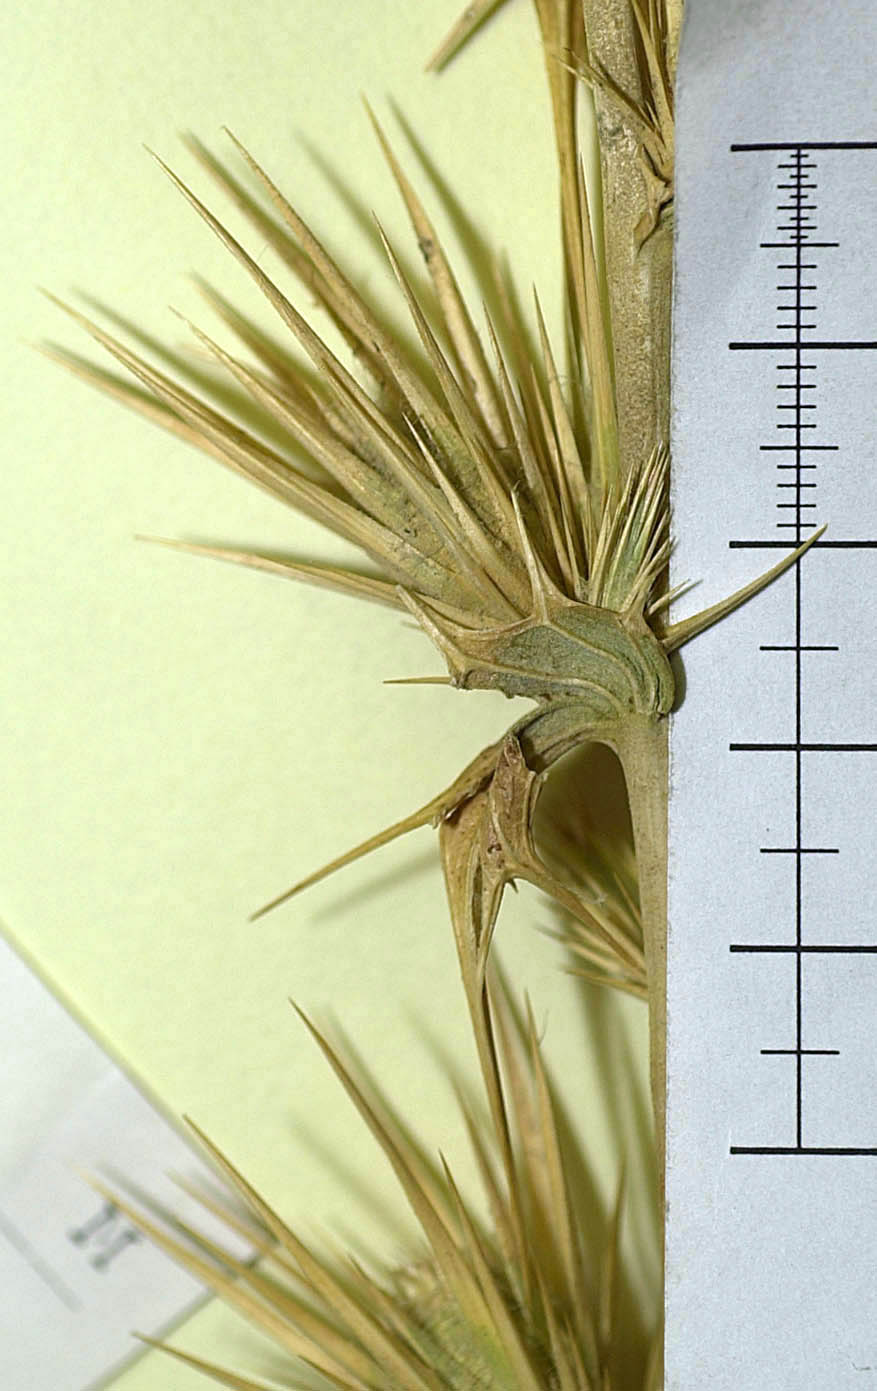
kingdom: Plantae
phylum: Tracheophyta
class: Magnoliopsida
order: Asterales
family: Asteraceae
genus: Cousinia
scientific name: Cousinia acanthodendron
